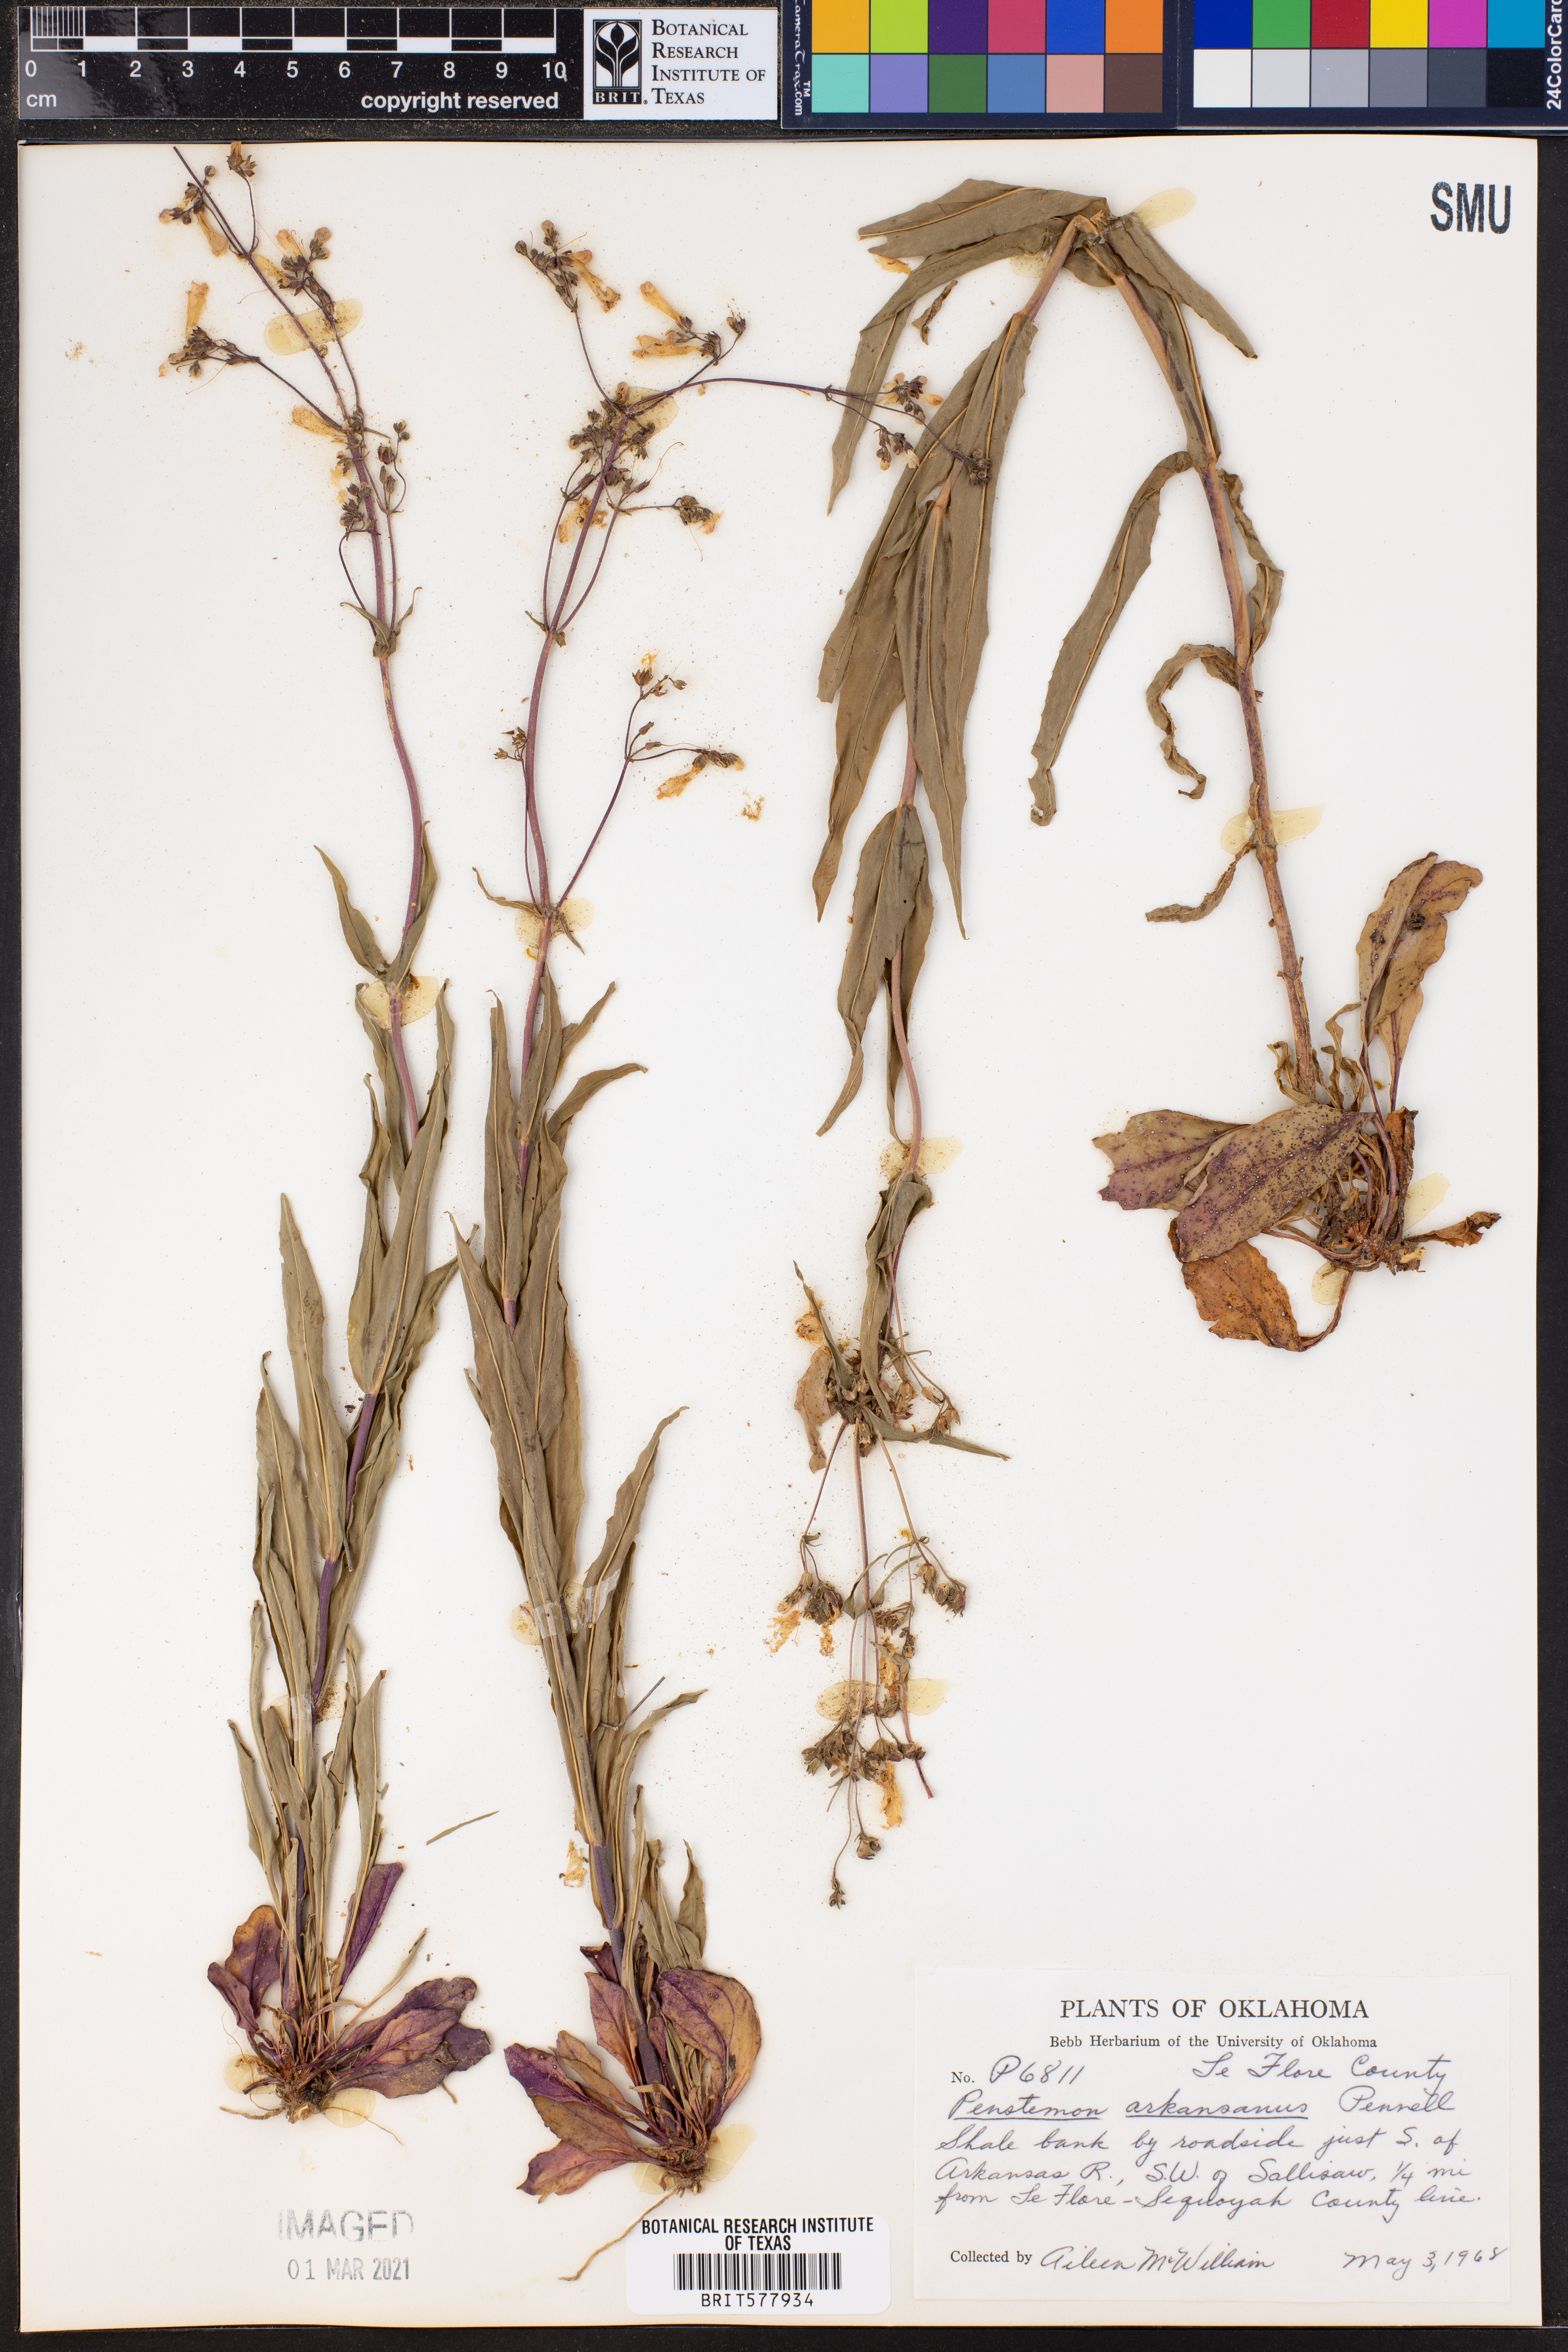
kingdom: Plantae
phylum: Tracheophyta
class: Magnoliopsida
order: Lamiales
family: Plantaginaceae
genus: Penstemon
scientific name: Penstemon arkansanus
